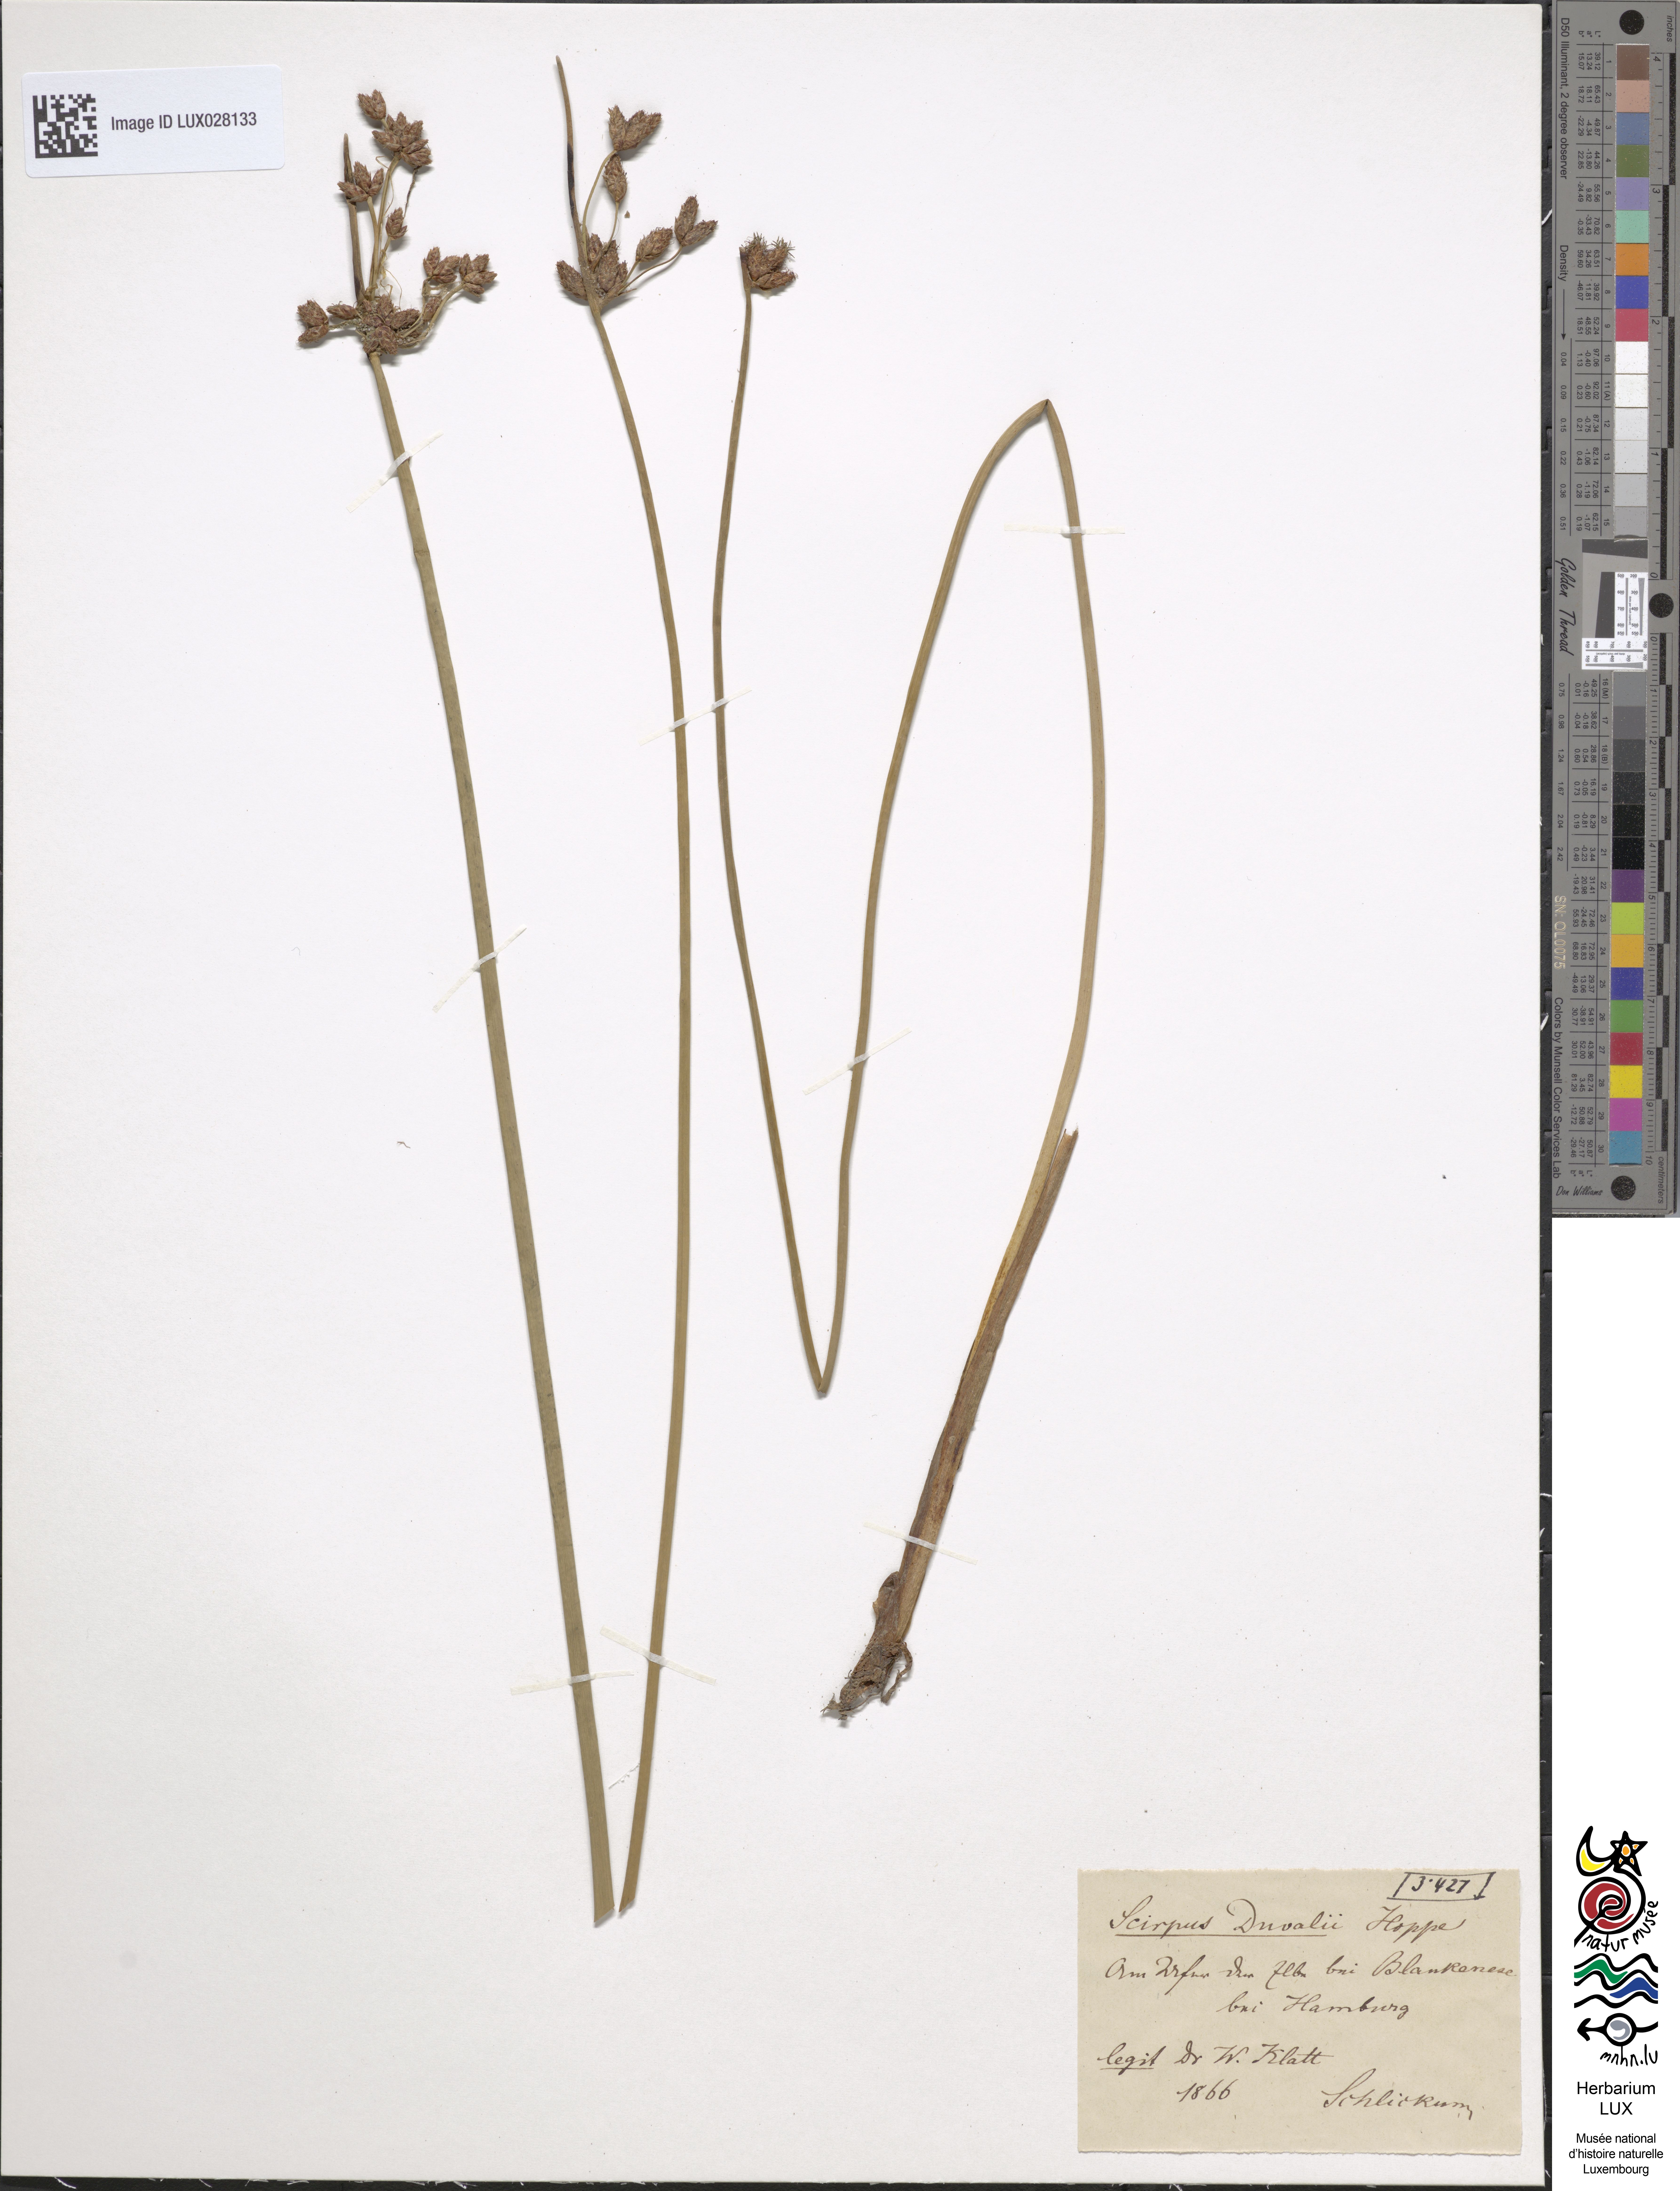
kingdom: Plantae
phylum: Tracheophyta
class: Liliopsida
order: Poales
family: Cyperaceae
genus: Schoenoplectus
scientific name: Schoenoplectus carinatus
